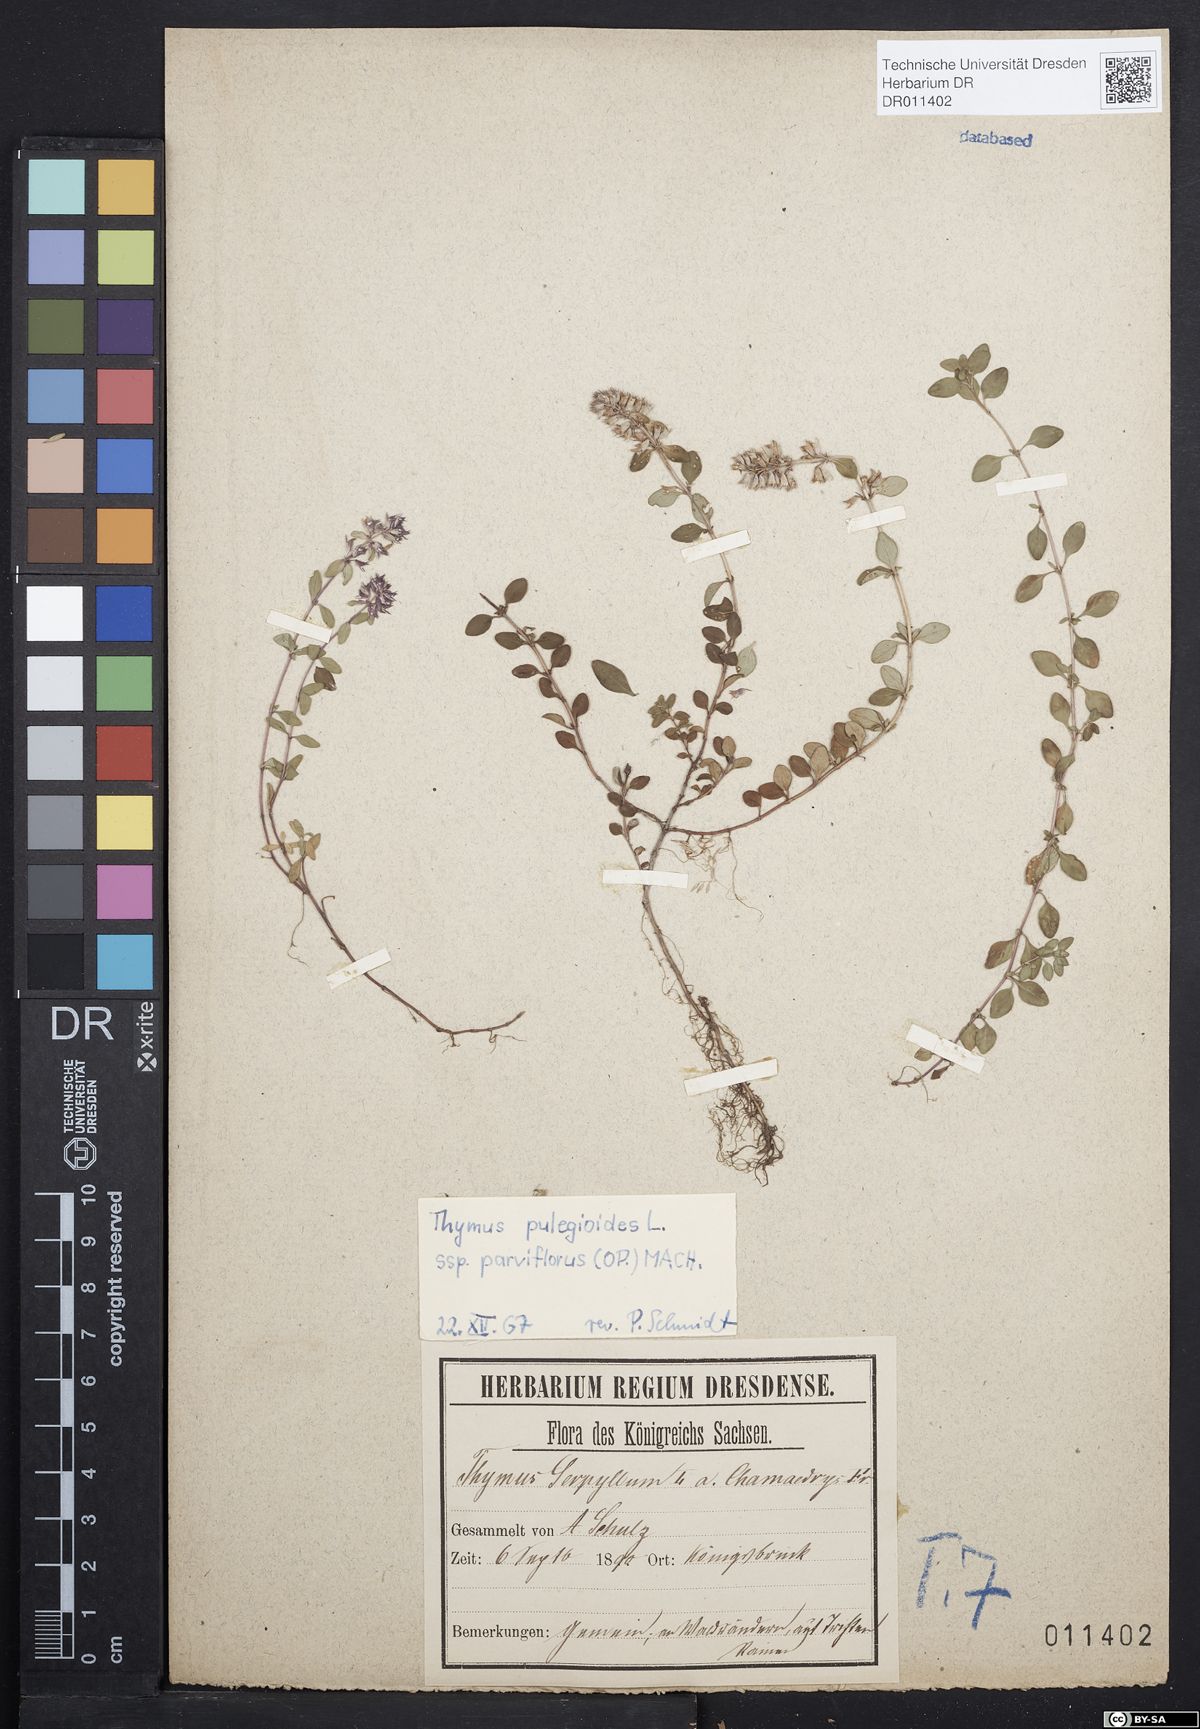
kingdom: Plantae
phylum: Tracheophyta
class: Magnoliopsida
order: Lamiales
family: Lamiaceae
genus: Thymus
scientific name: Thymus pulegioides
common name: Large thyme
